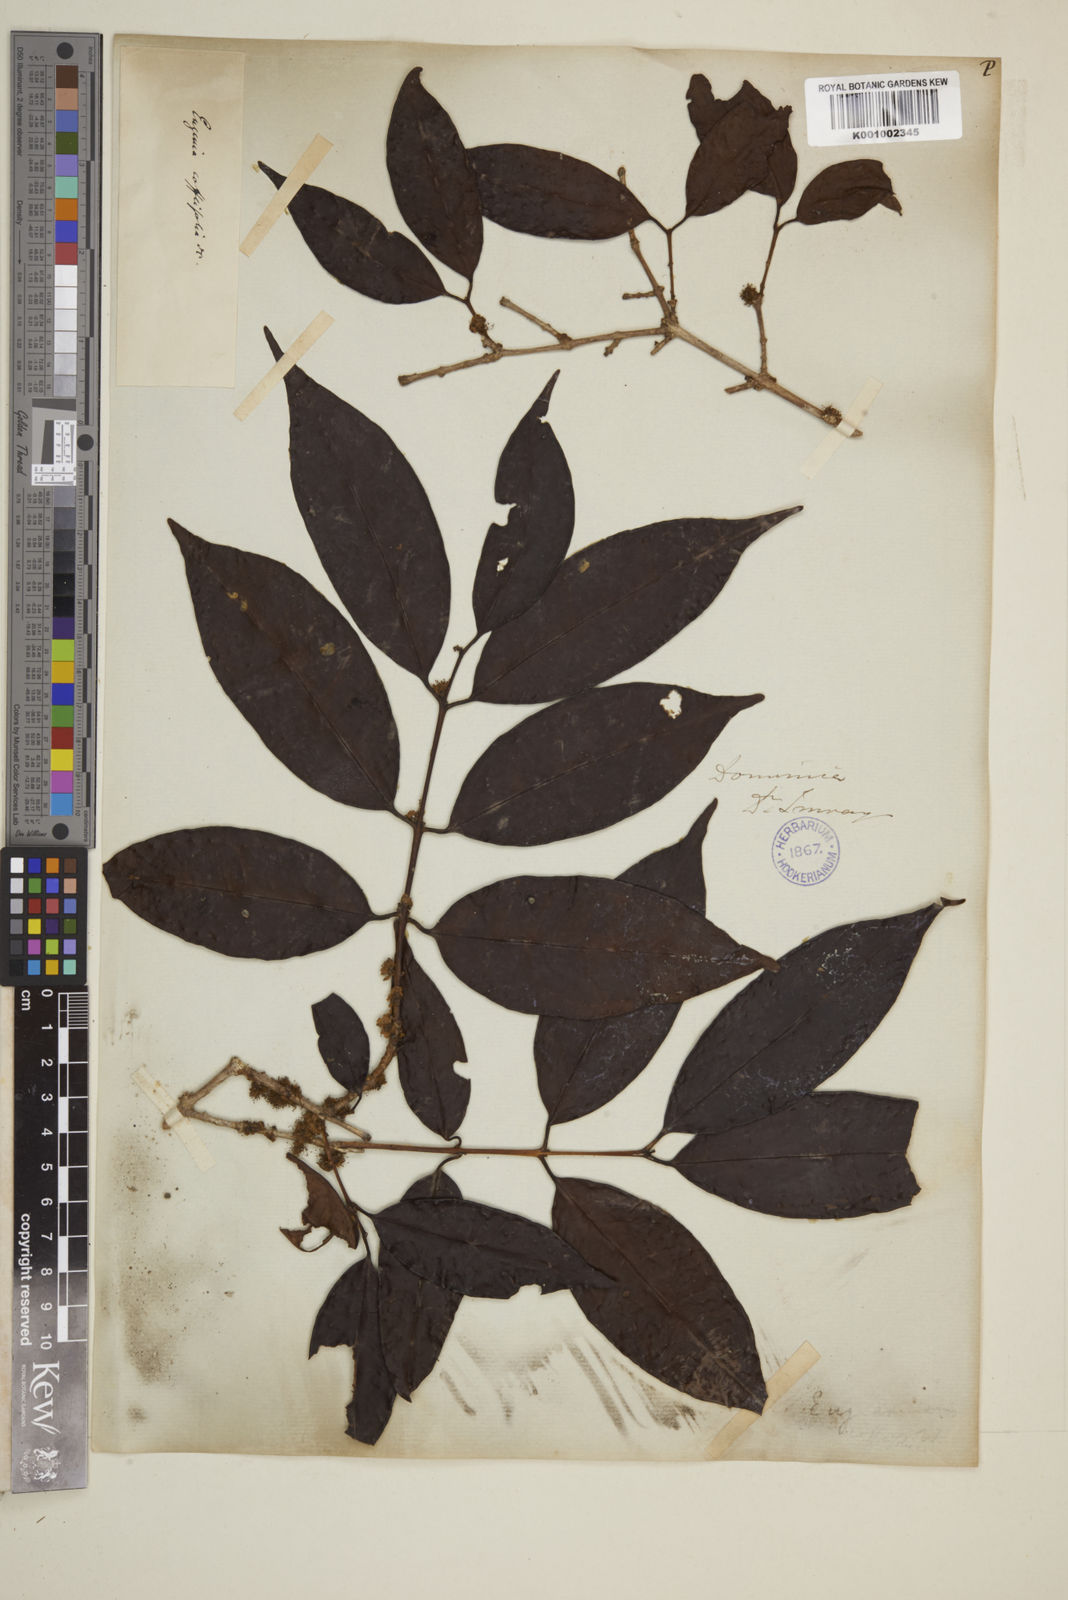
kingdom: Plantae
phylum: Tracheophyta
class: Magnoliopsida
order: Myrtales
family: Myrtaceae
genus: Eugenia
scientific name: Eugenia coffeifolia
